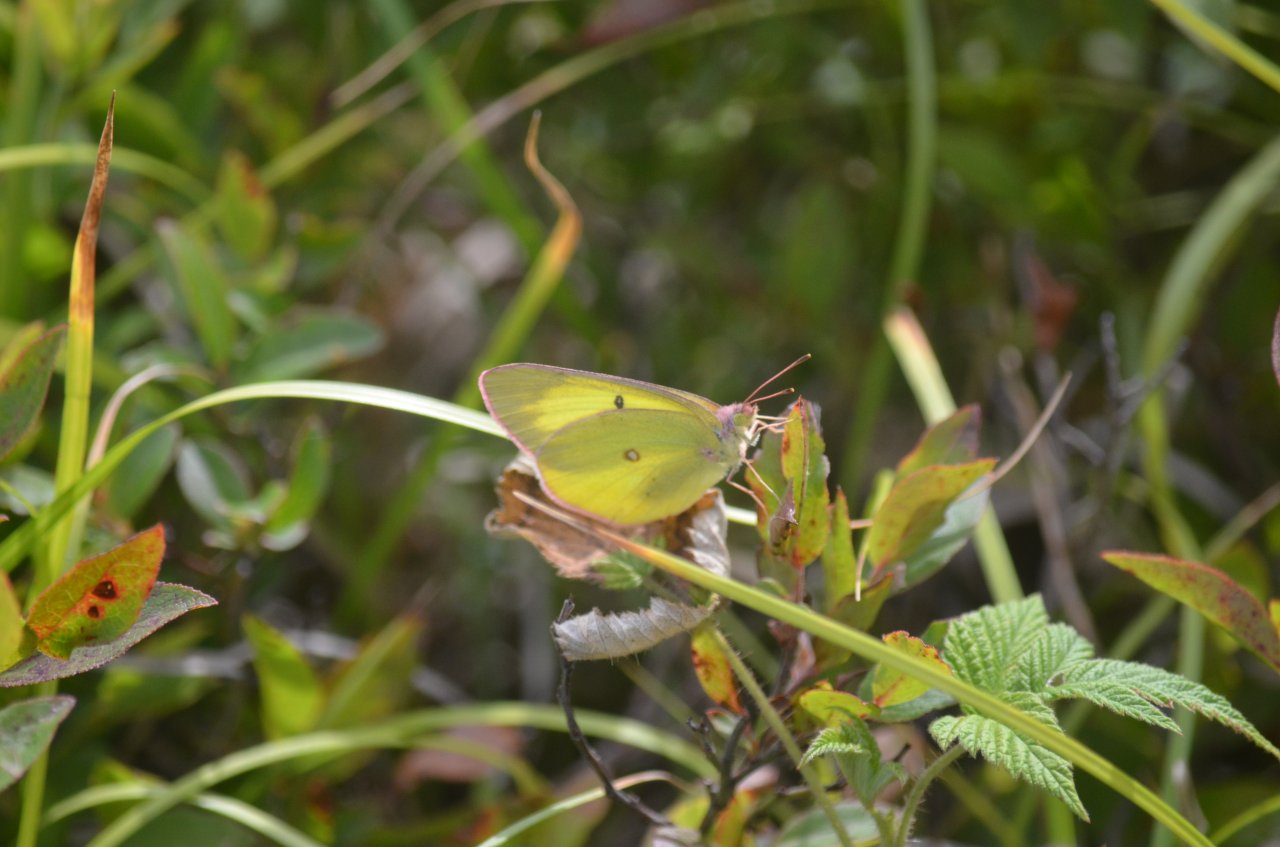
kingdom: Animalia
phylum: Arthropoda
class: Insecta
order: Lepidoptera
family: Pieridae
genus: Colias
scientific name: Colias interior
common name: Pink-edged Sulphur
